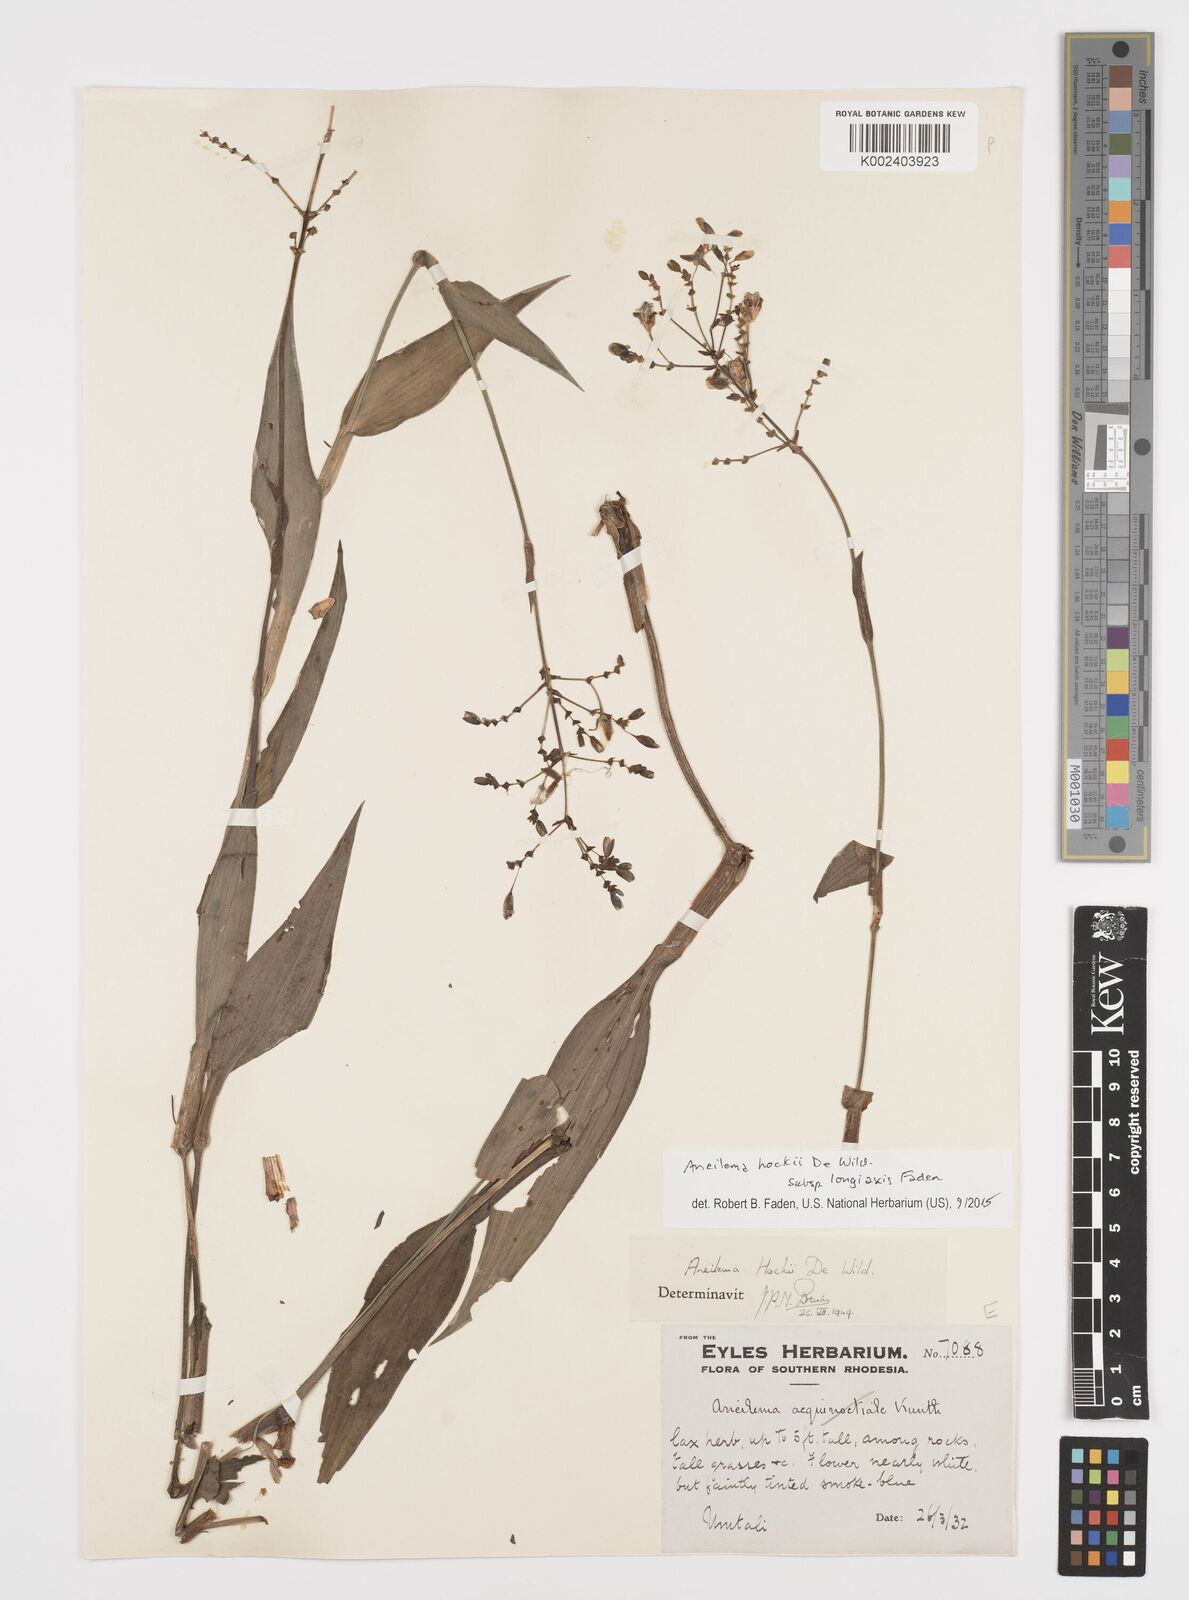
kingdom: Plantae
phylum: Tracheophyta
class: Liliopsida
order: Commelinales
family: Commelinaceae
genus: Aneilema
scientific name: Aneilema hockii
